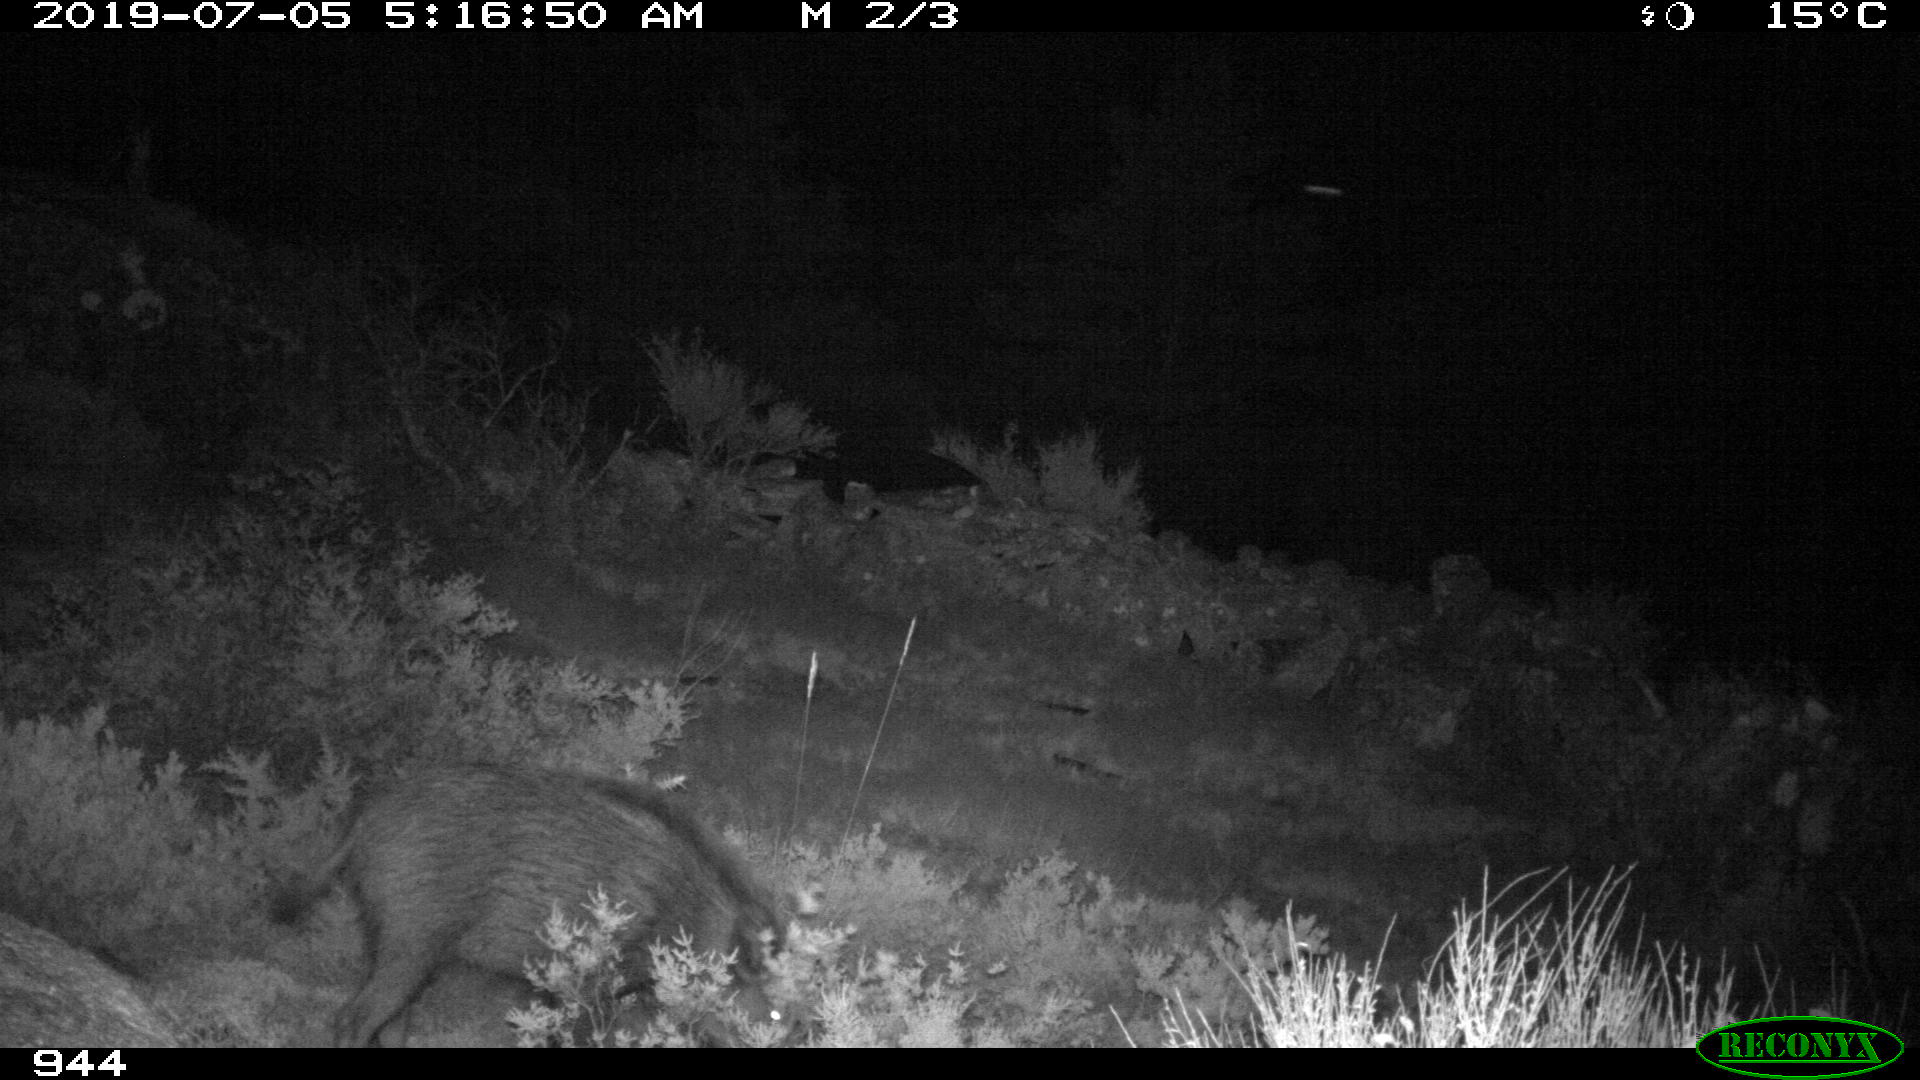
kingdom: Animalia
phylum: Chordata
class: Mammalia
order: Artiodactyla
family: Suidae
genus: Sus
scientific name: Sus scrofa
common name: Wild boar
